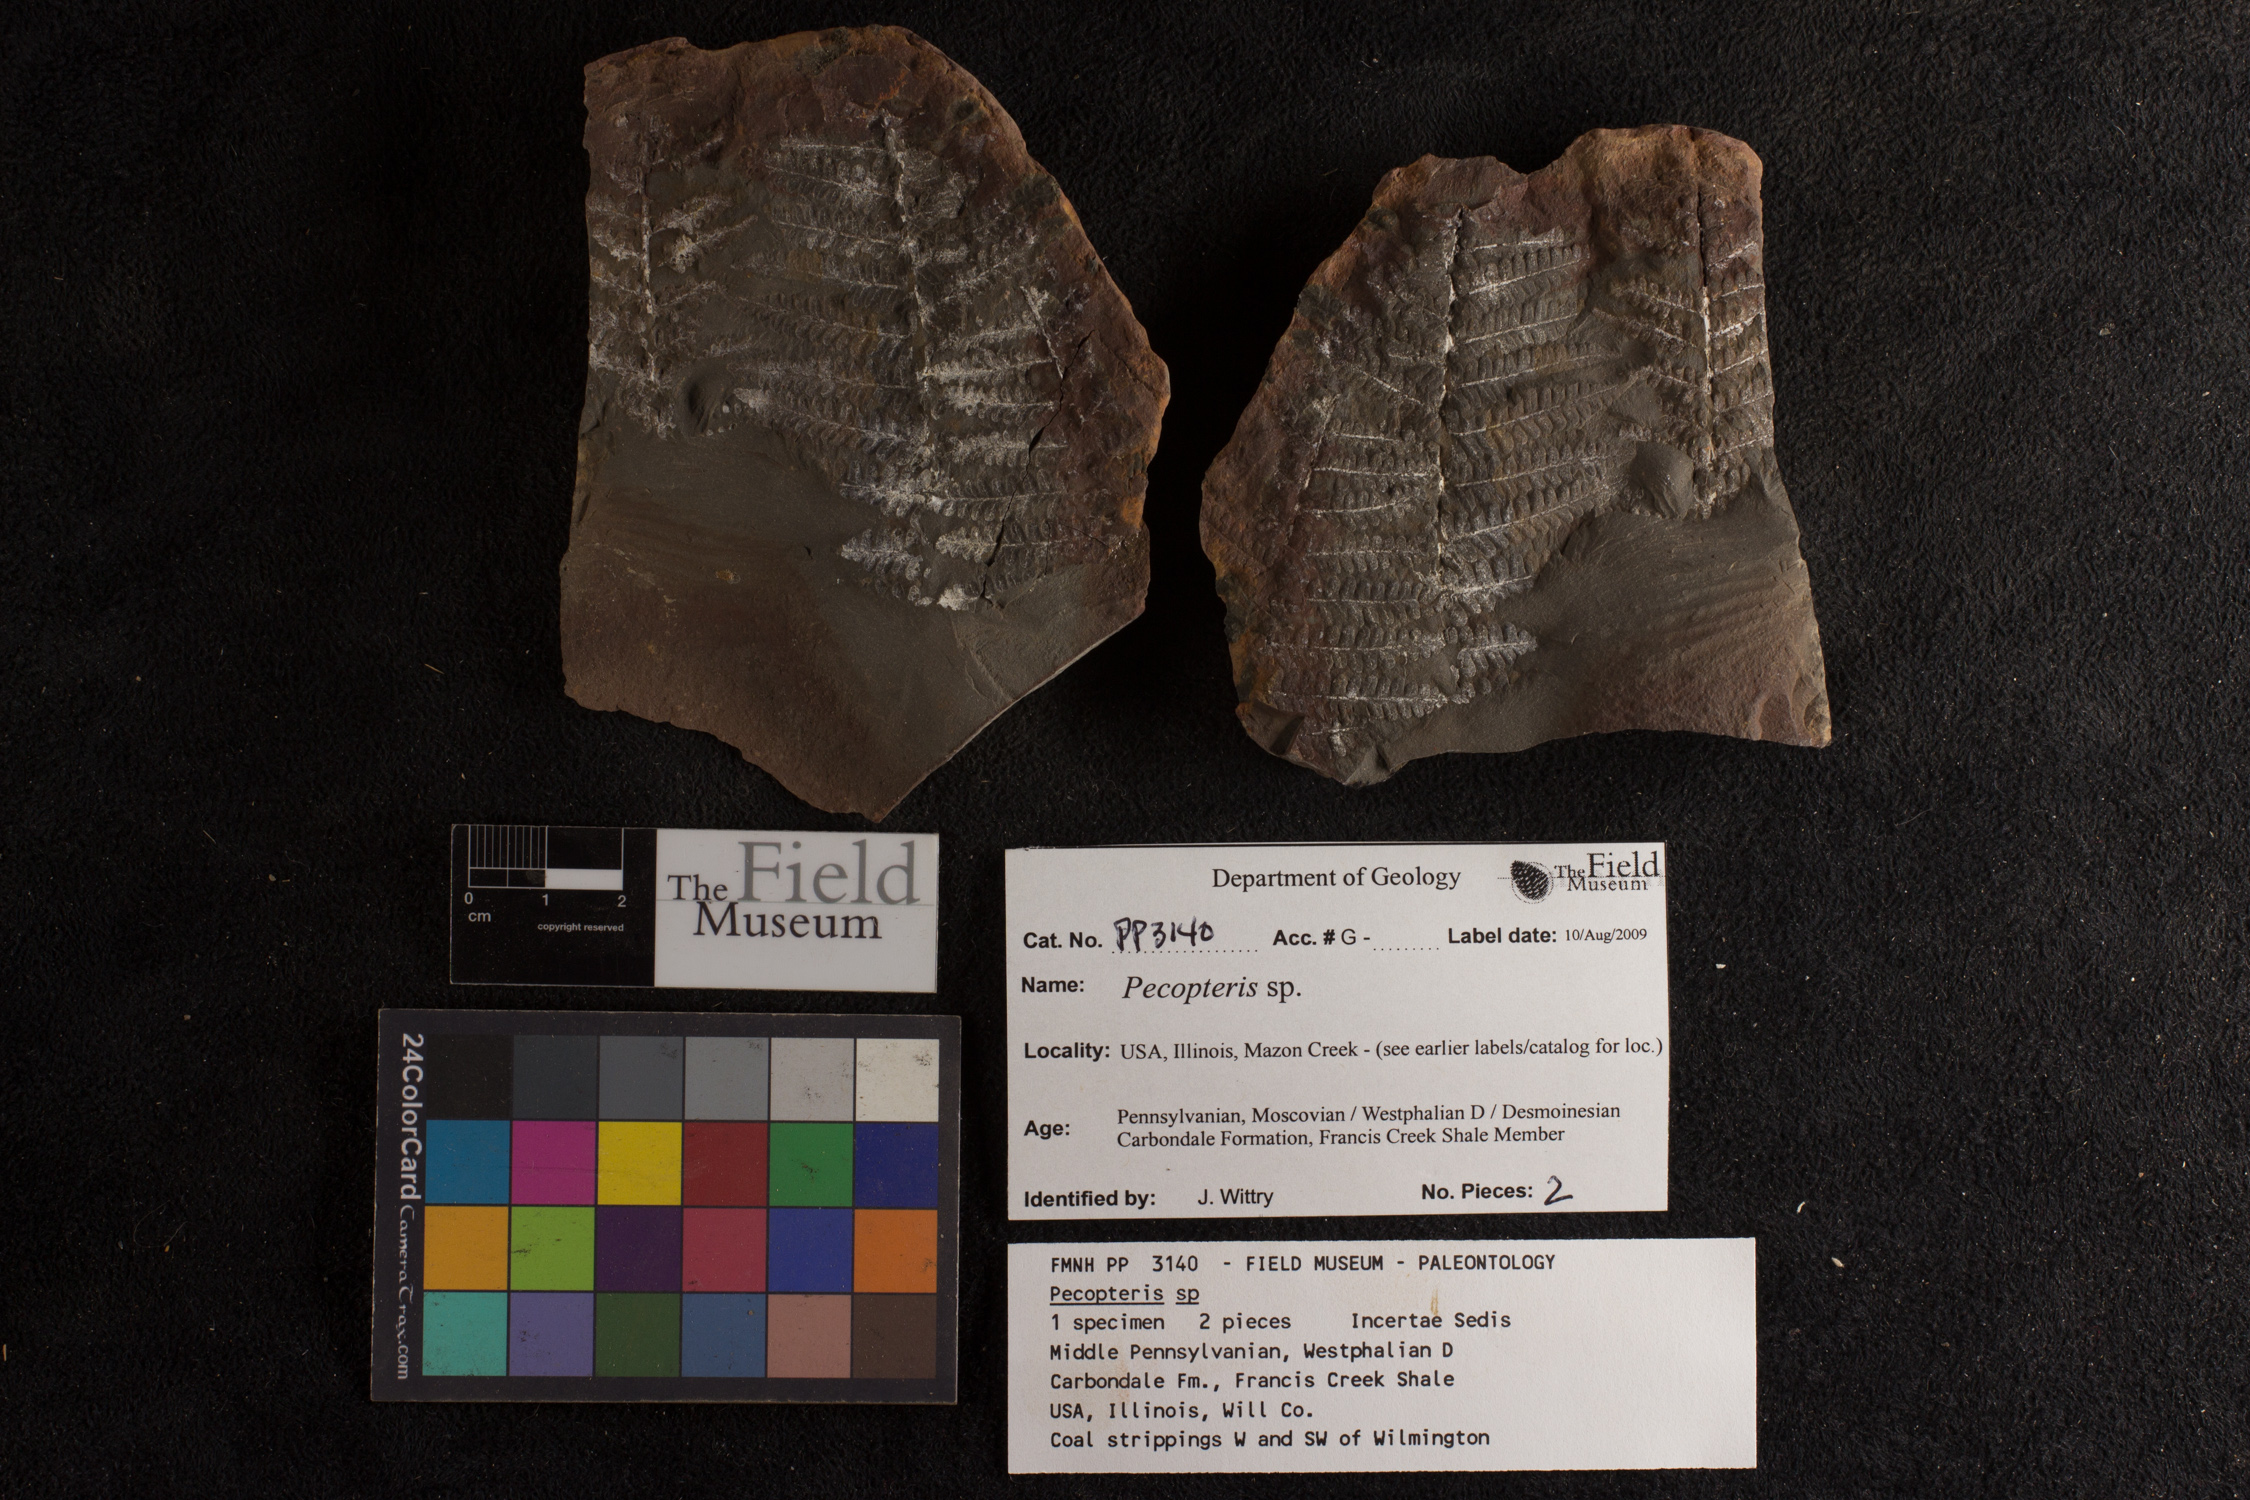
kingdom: Plantae
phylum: Tracheophyta
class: Polypodiopsida
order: Marattiales
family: Asterothecaceae
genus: Pecopteris
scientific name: Pecopteris
